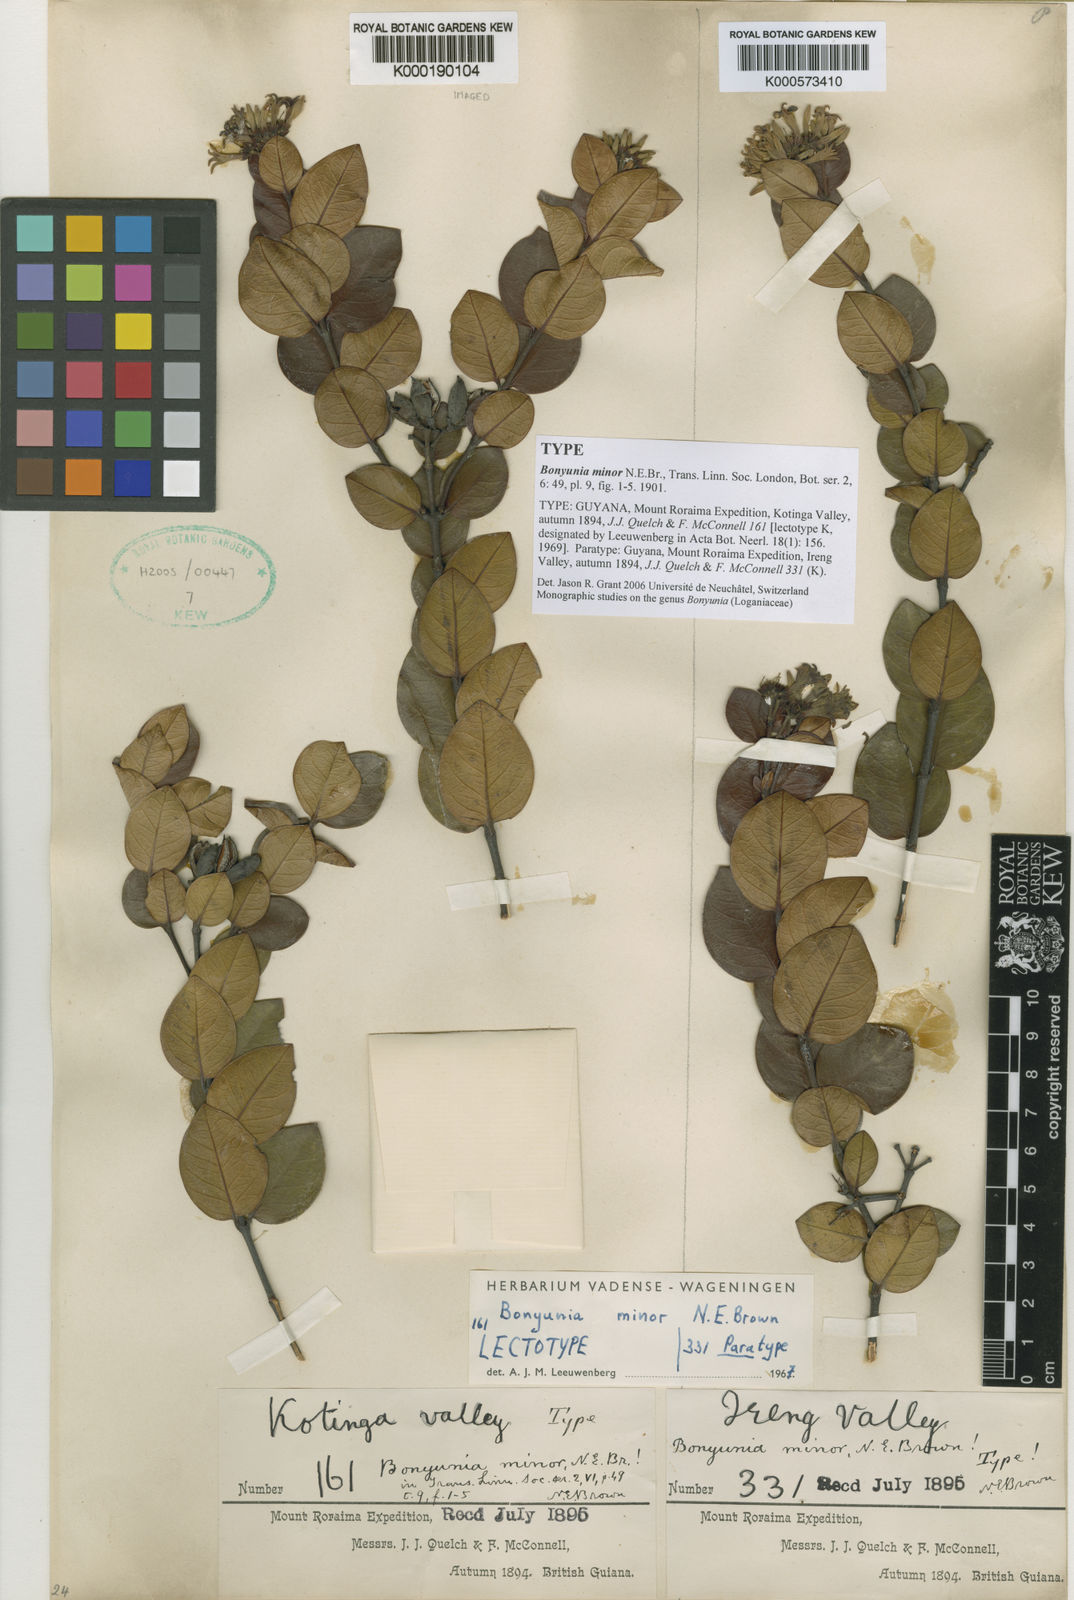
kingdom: Plantae
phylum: Tracheophyta
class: Magnoliopsida
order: Gentianales
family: Loganiaceae
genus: Bonyunia
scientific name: Bonyunia minor
